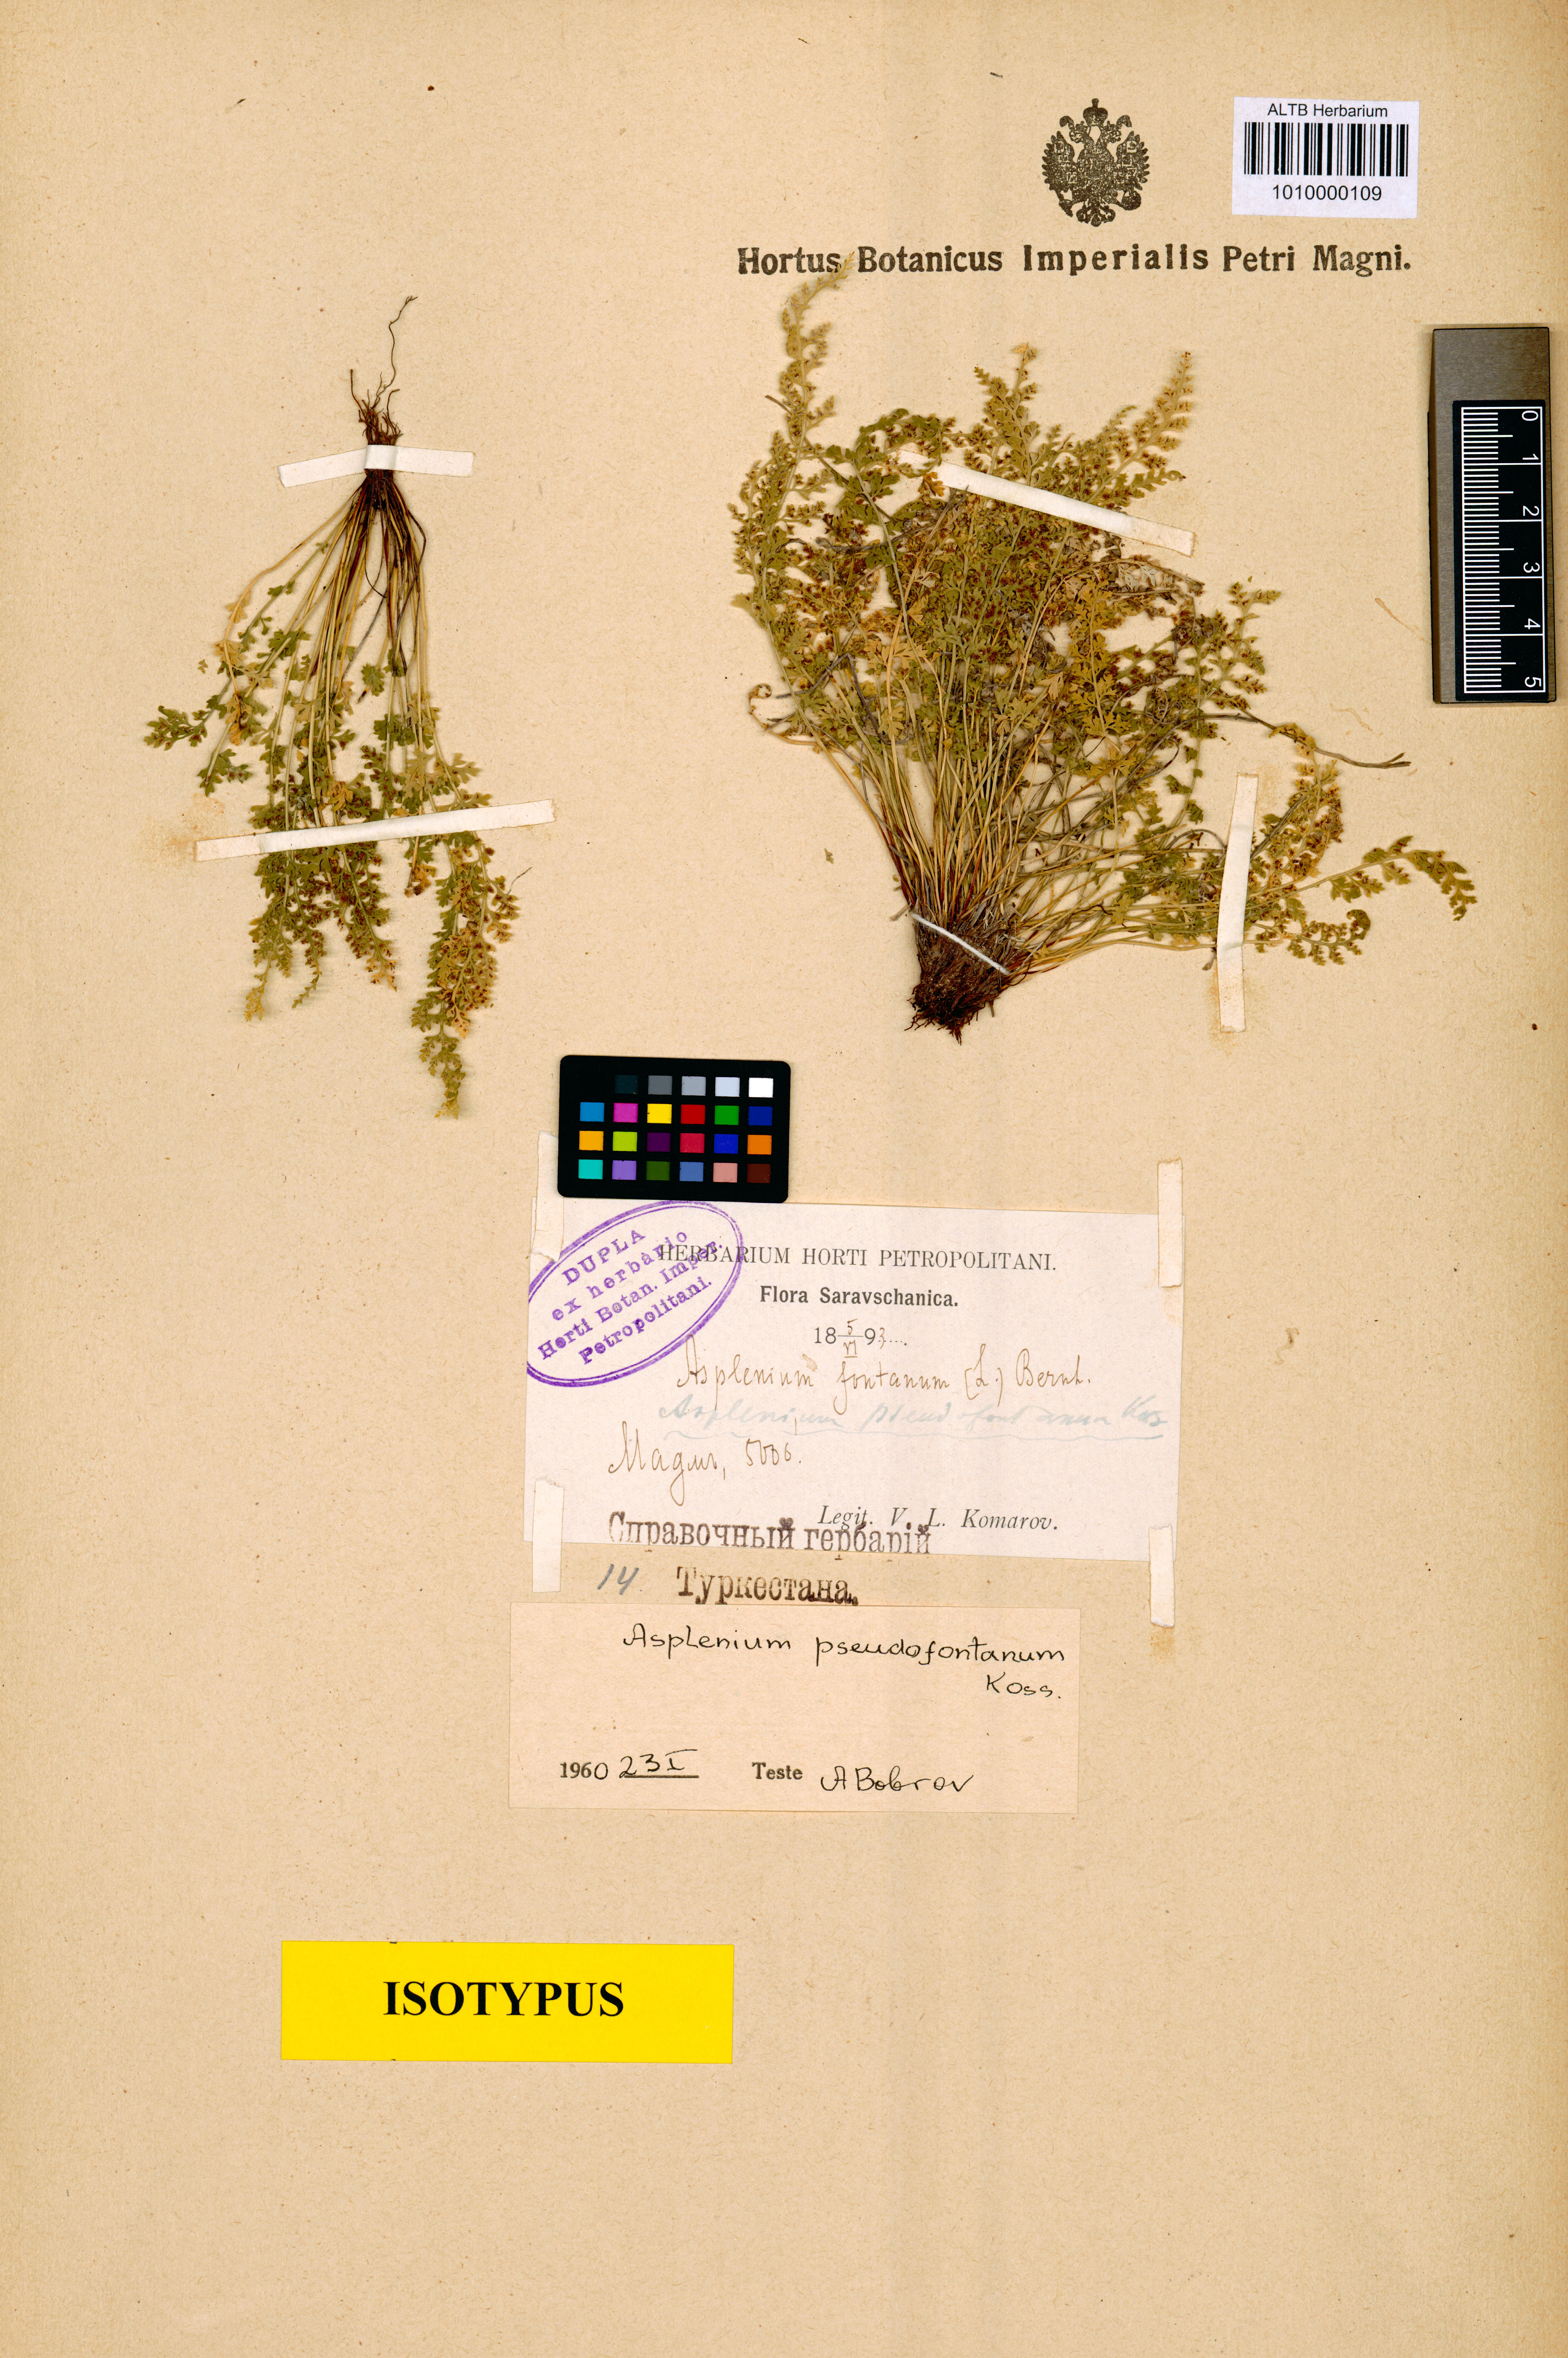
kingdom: Plantae
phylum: Tracheophyta
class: Polypodiopsida
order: Polypodiales
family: Aspleniaceae
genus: Asplenium
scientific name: Asplenium fontanum
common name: Fountain spleenwort
